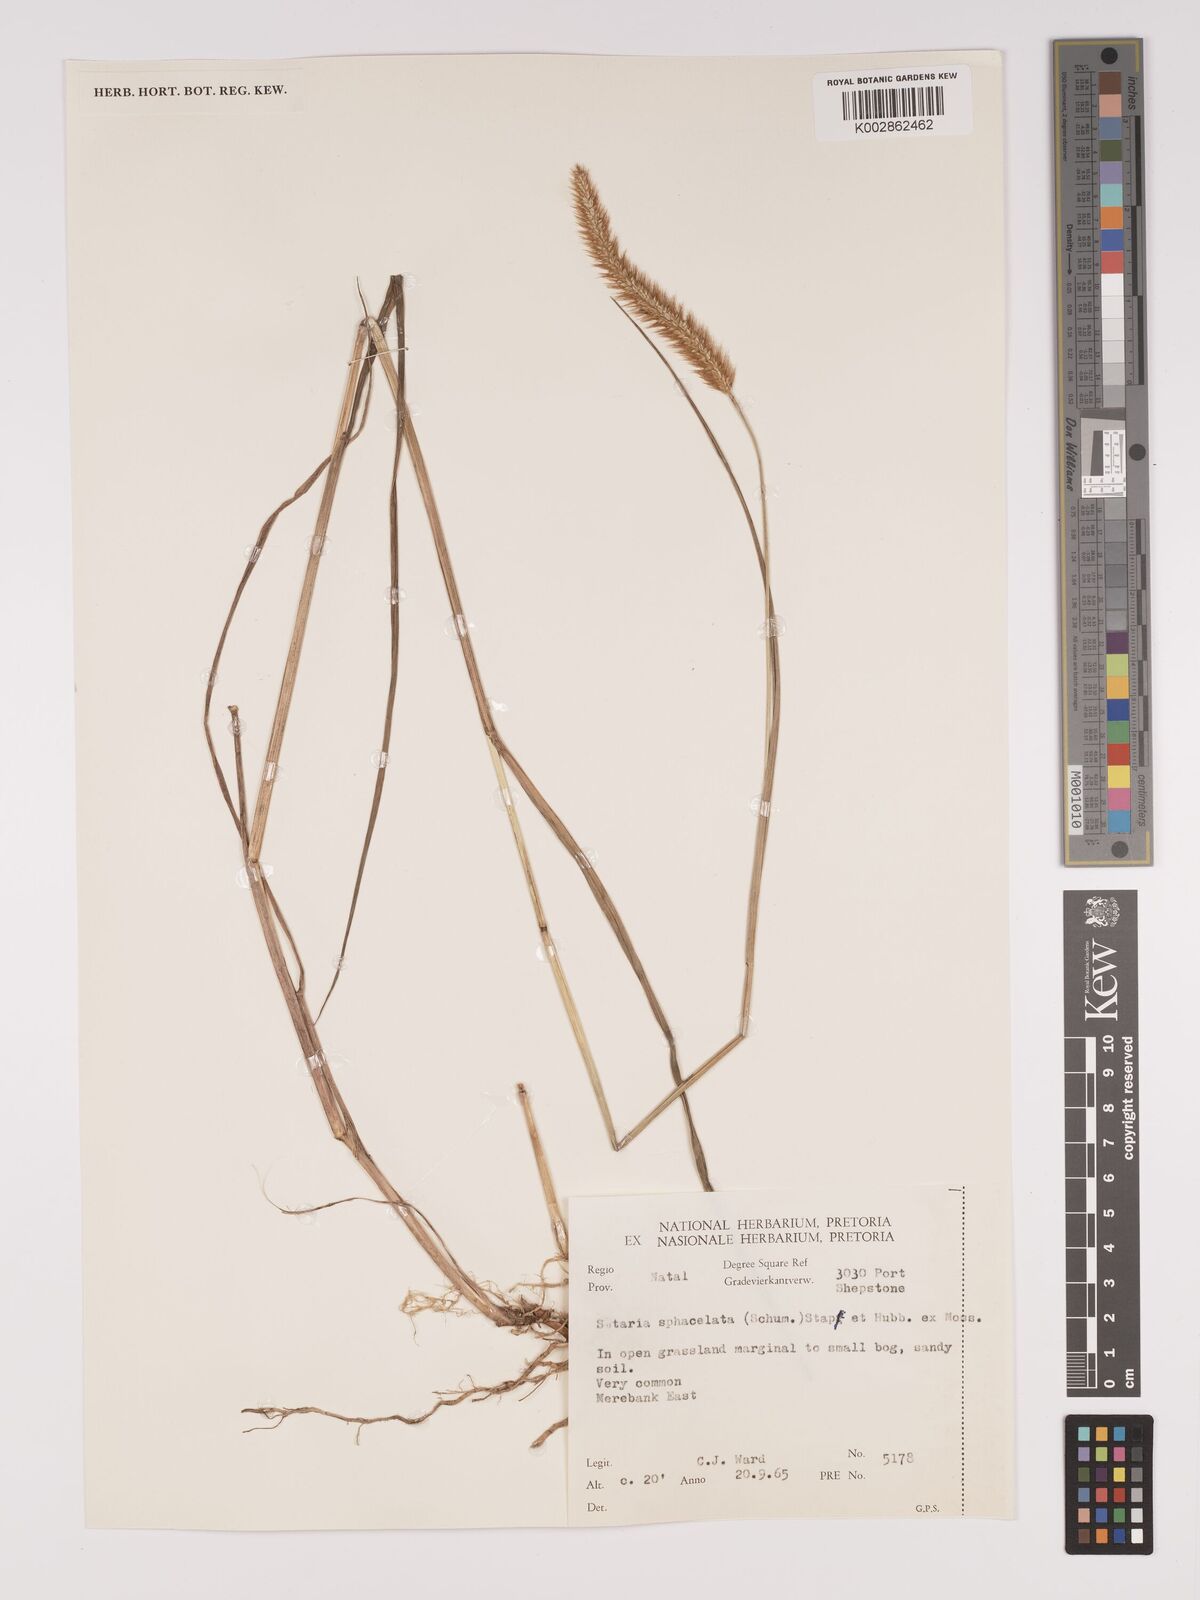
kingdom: Plantae
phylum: Tracheophyta
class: Liliopsida
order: Poales
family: Poaceae
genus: Setaria
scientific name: Setaria sphacelata
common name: African bristlegrass
